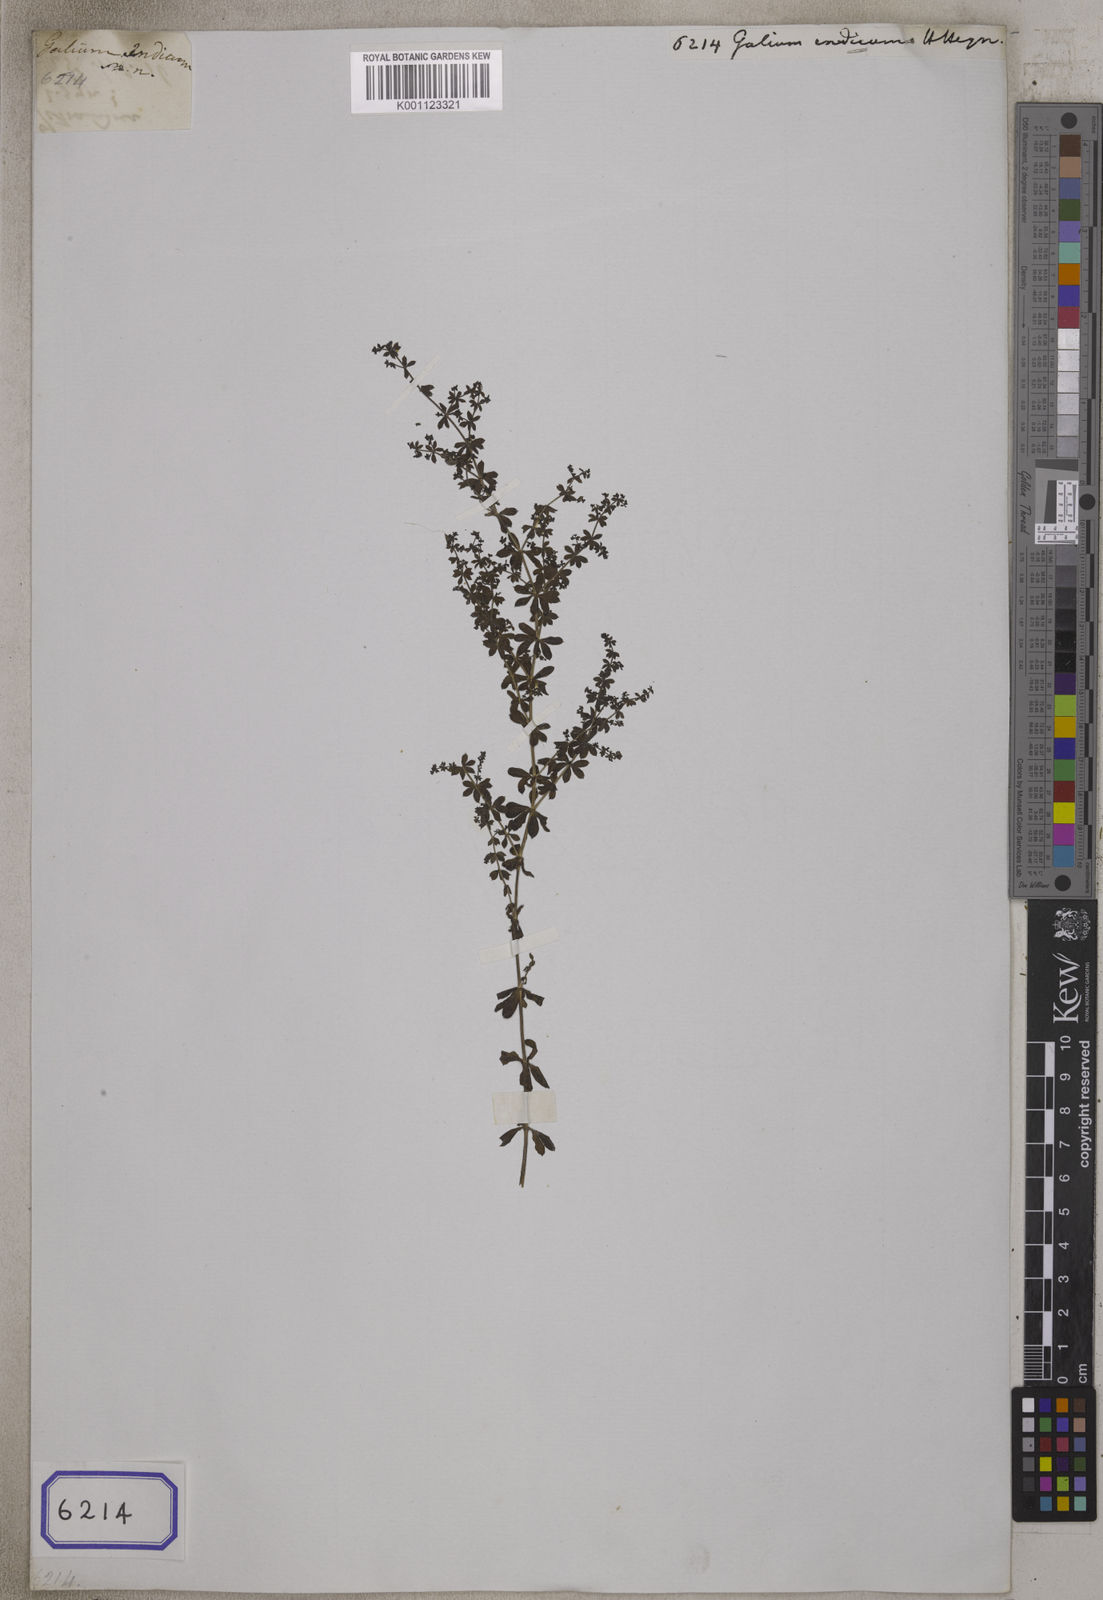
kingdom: Plantae
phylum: Tracheophyta
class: Magnoliopsida
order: Gentianales
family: Rubiaceae
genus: Galium
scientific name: Galium
